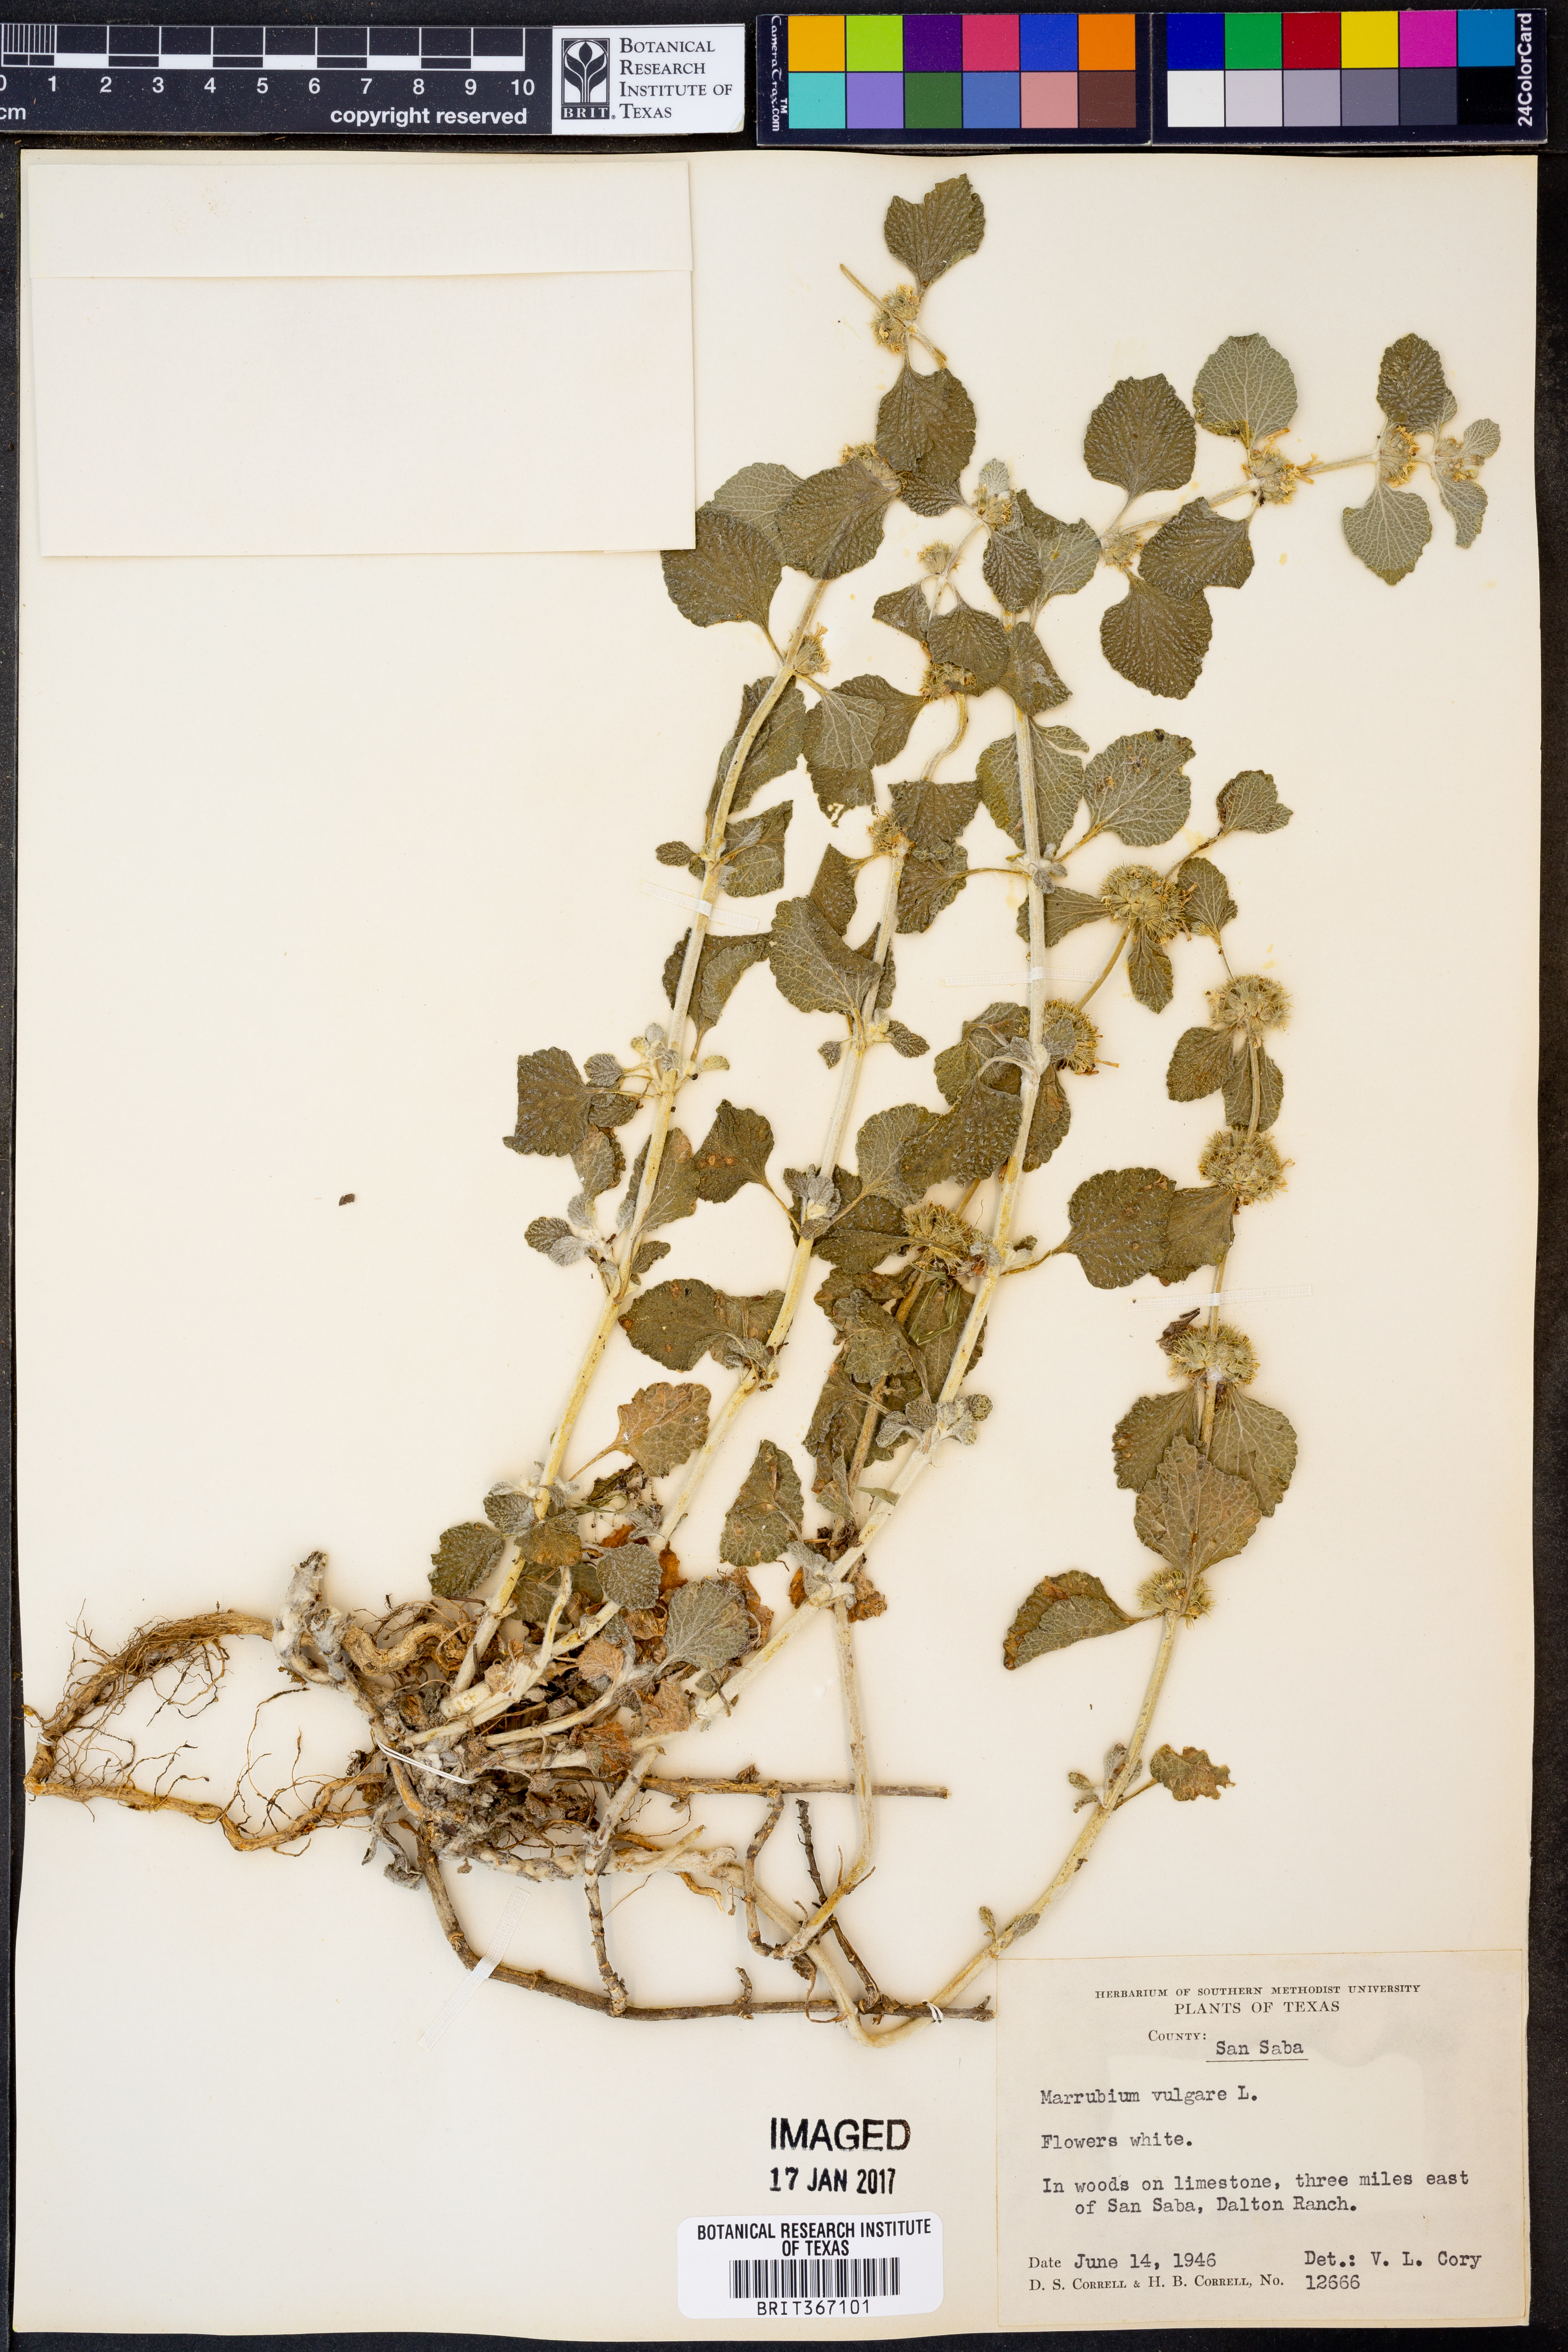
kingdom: Plantae
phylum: Tracheophyta
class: Magnoliopsida
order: Lamiales
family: Lamiaceae
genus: Marrubium
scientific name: Marrubium vulgare
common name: Horehound
